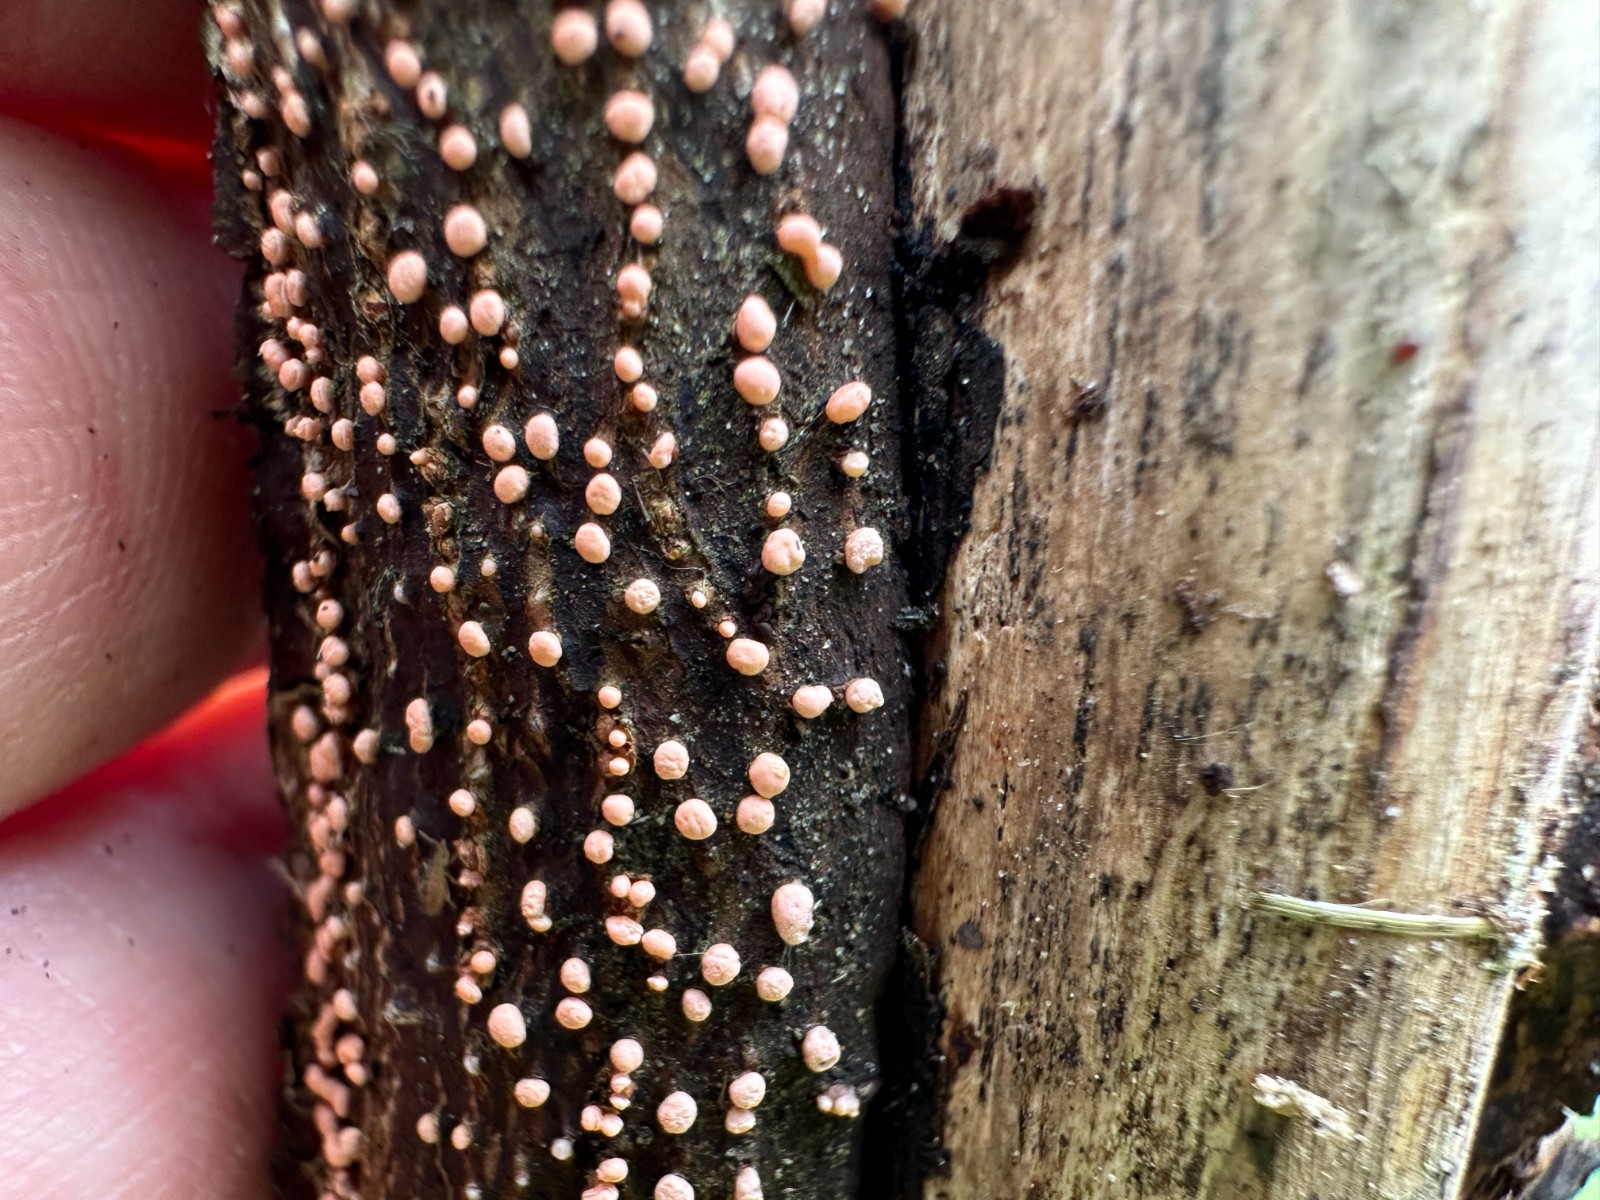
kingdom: Fungi
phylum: Ascomycota
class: Sordariomycetes
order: Hypocreales
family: Nectriaceae
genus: Nectria
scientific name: Nectria cinnabarina
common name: almindelig cinnobersvamp
